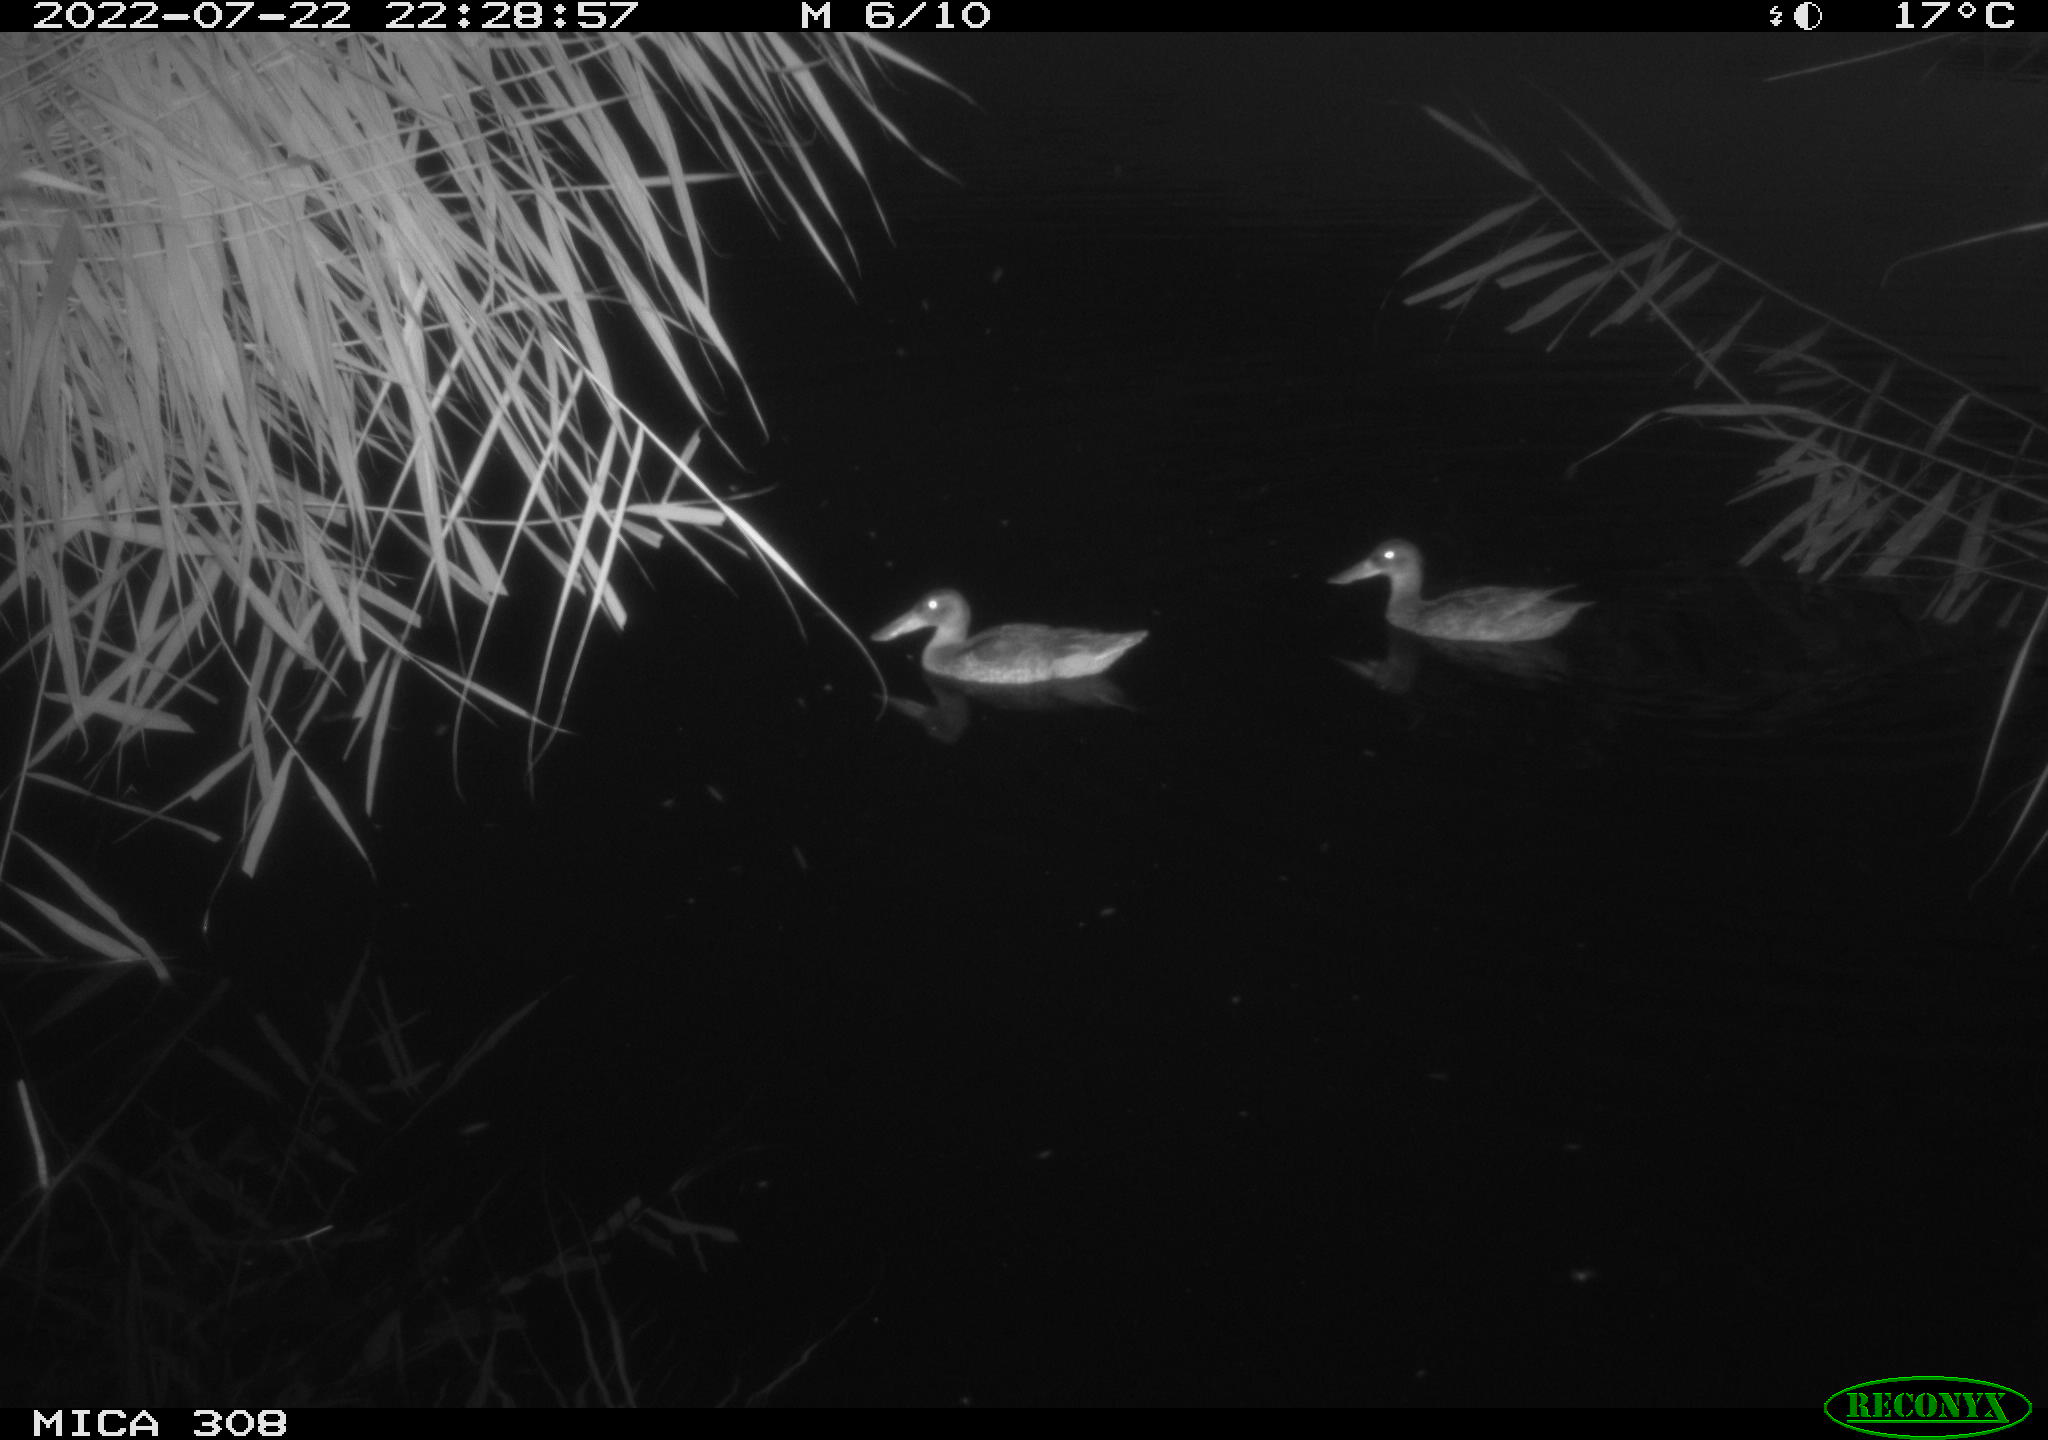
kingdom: Animalia
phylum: Chordata
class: Aves
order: Anseriformes
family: Anatidae
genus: Anas
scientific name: Anas platyrhynchos
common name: Mallard
